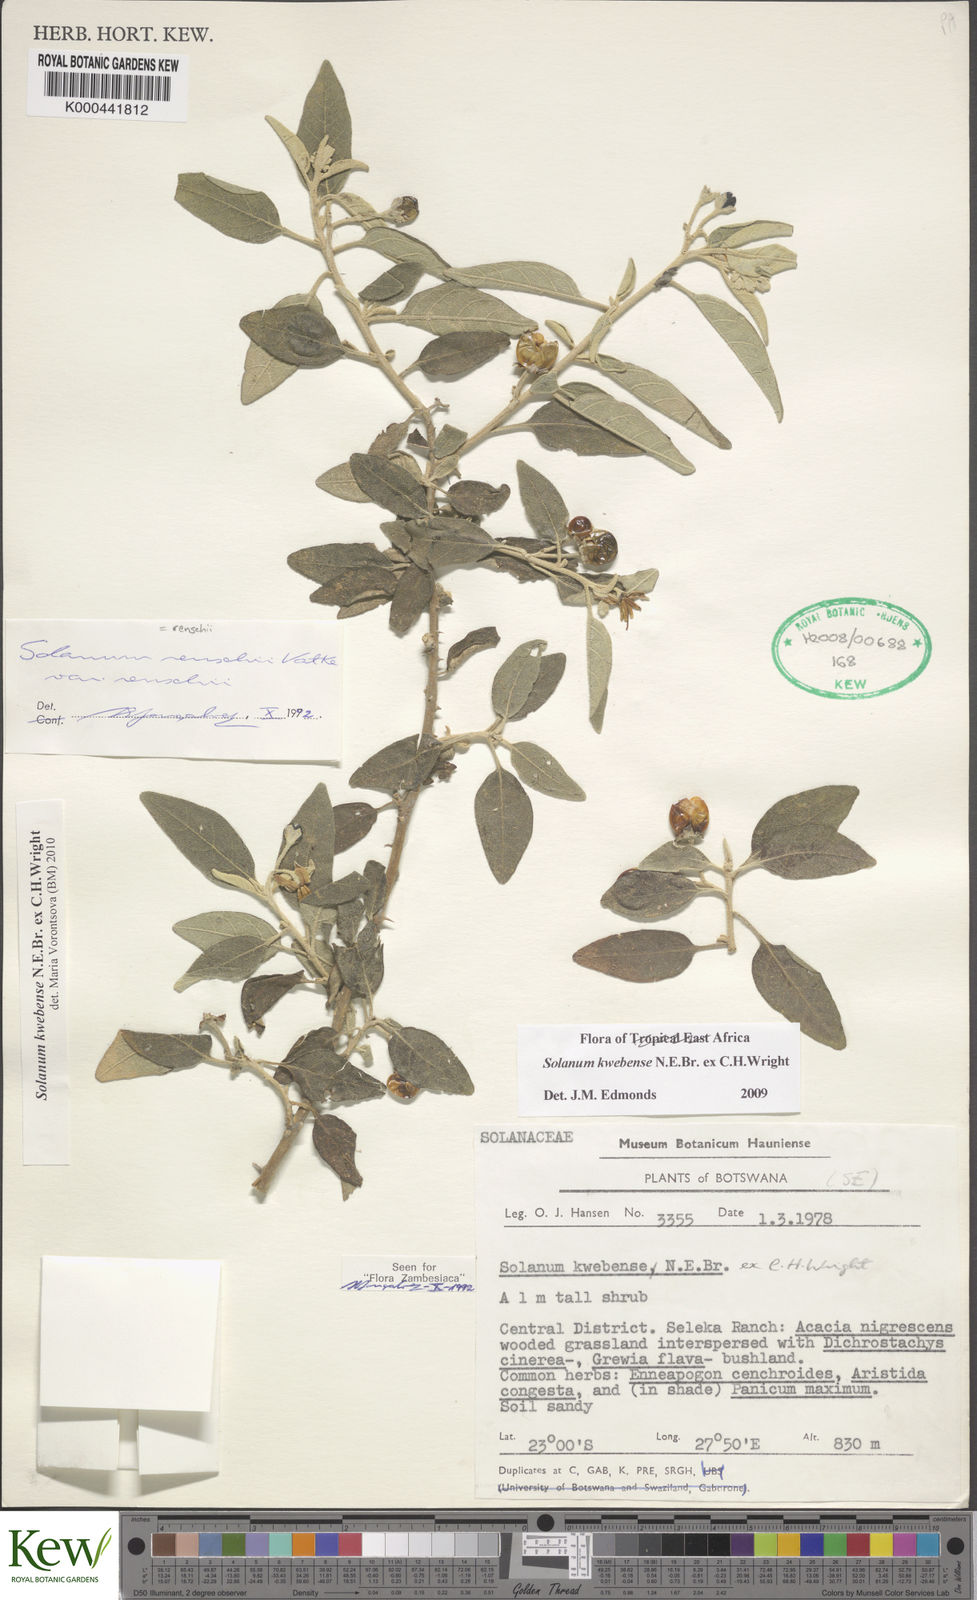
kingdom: Plantae
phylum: Tracheophyta
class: Magnoliopsida
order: Solanales
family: Solanaceae
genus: Solanum
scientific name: Solanum tettense
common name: Mozambique bitter apple
